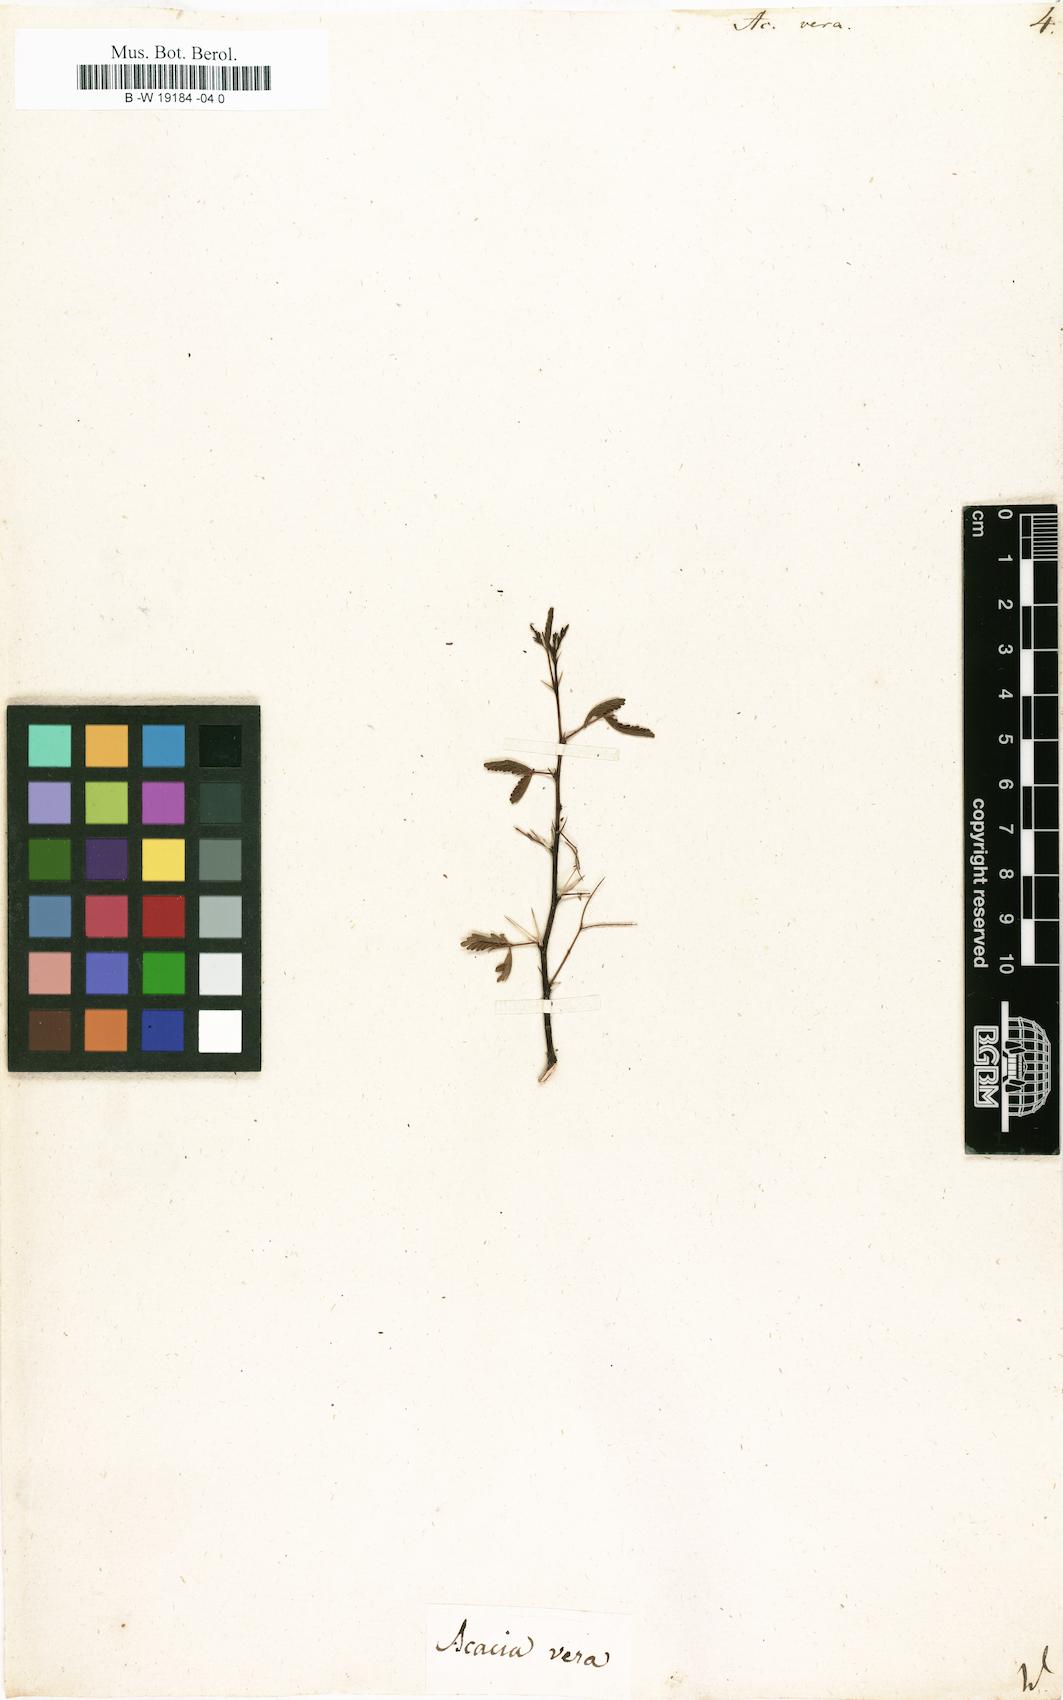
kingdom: Plantae
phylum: Tracheophyta
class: Magnoliopsida
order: Fabales
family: Fabaceae
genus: Vachellia
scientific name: Vachellia nilotica
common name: Arabic gumtree
